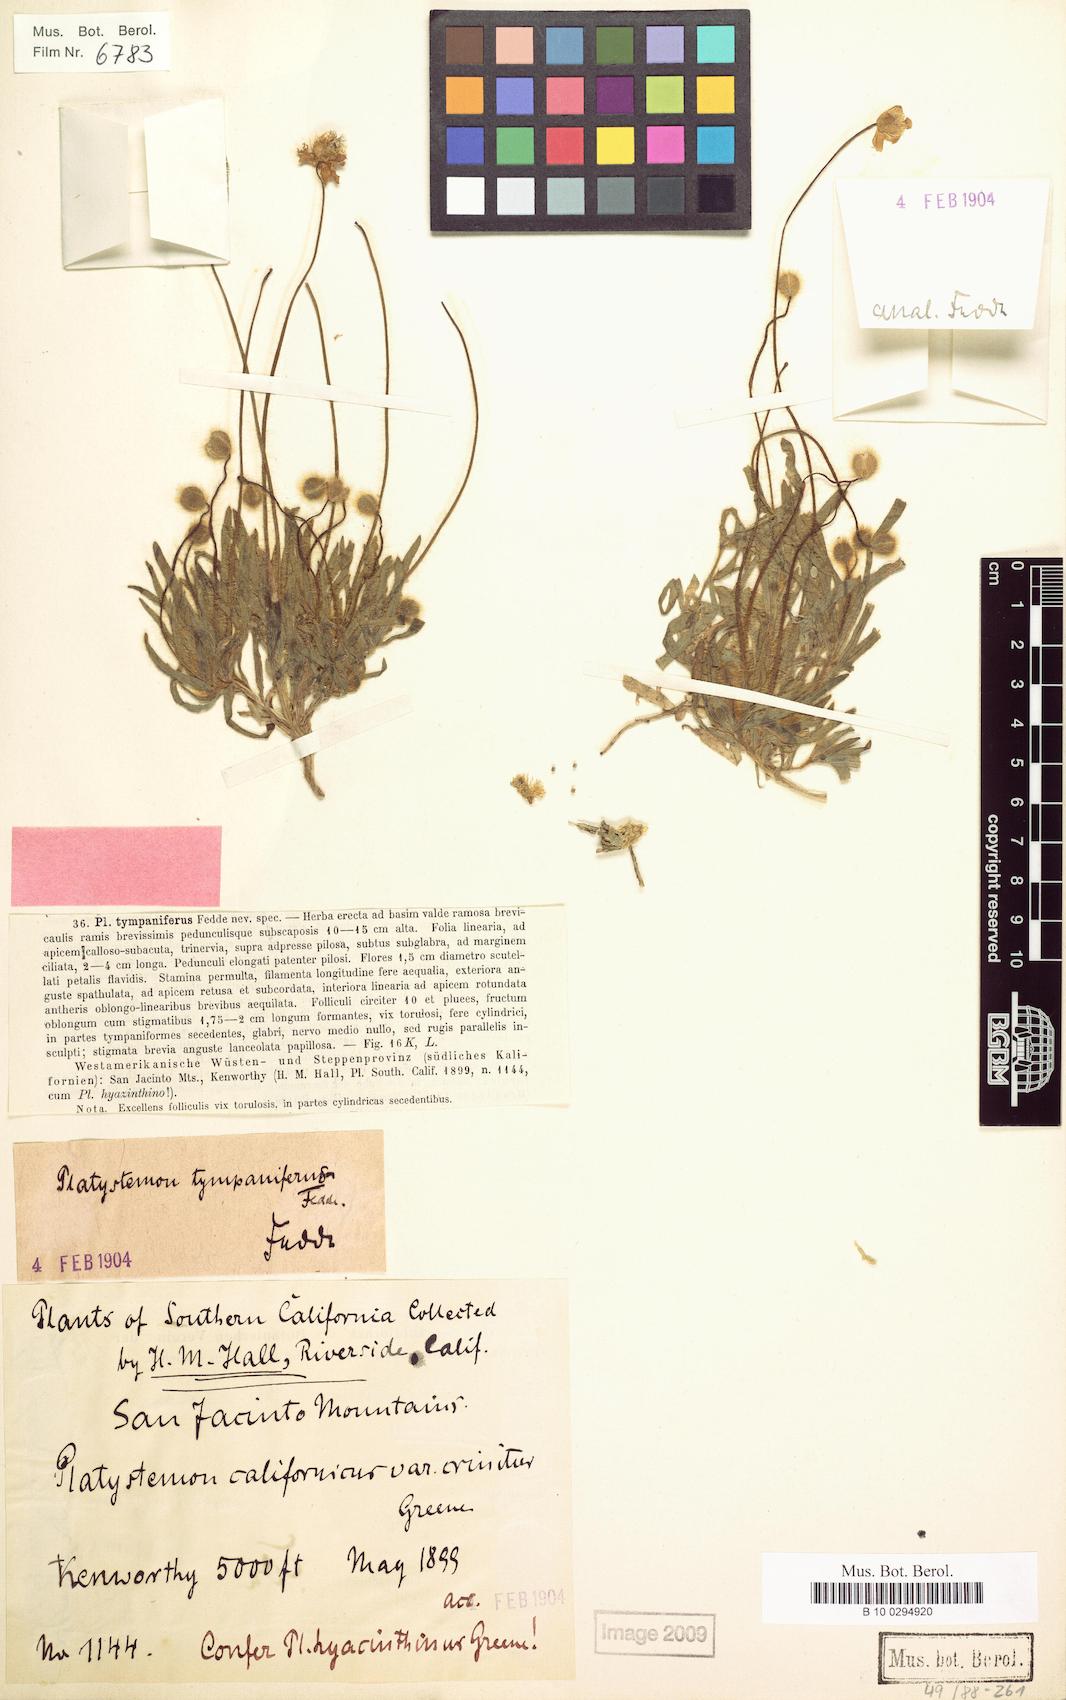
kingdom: Plantae
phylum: Tracheophyta
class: Magnoliopsida
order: Ranunculales
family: Papaveraceae
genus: Platystemon
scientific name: Platystemon californicus
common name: Cream-cups
